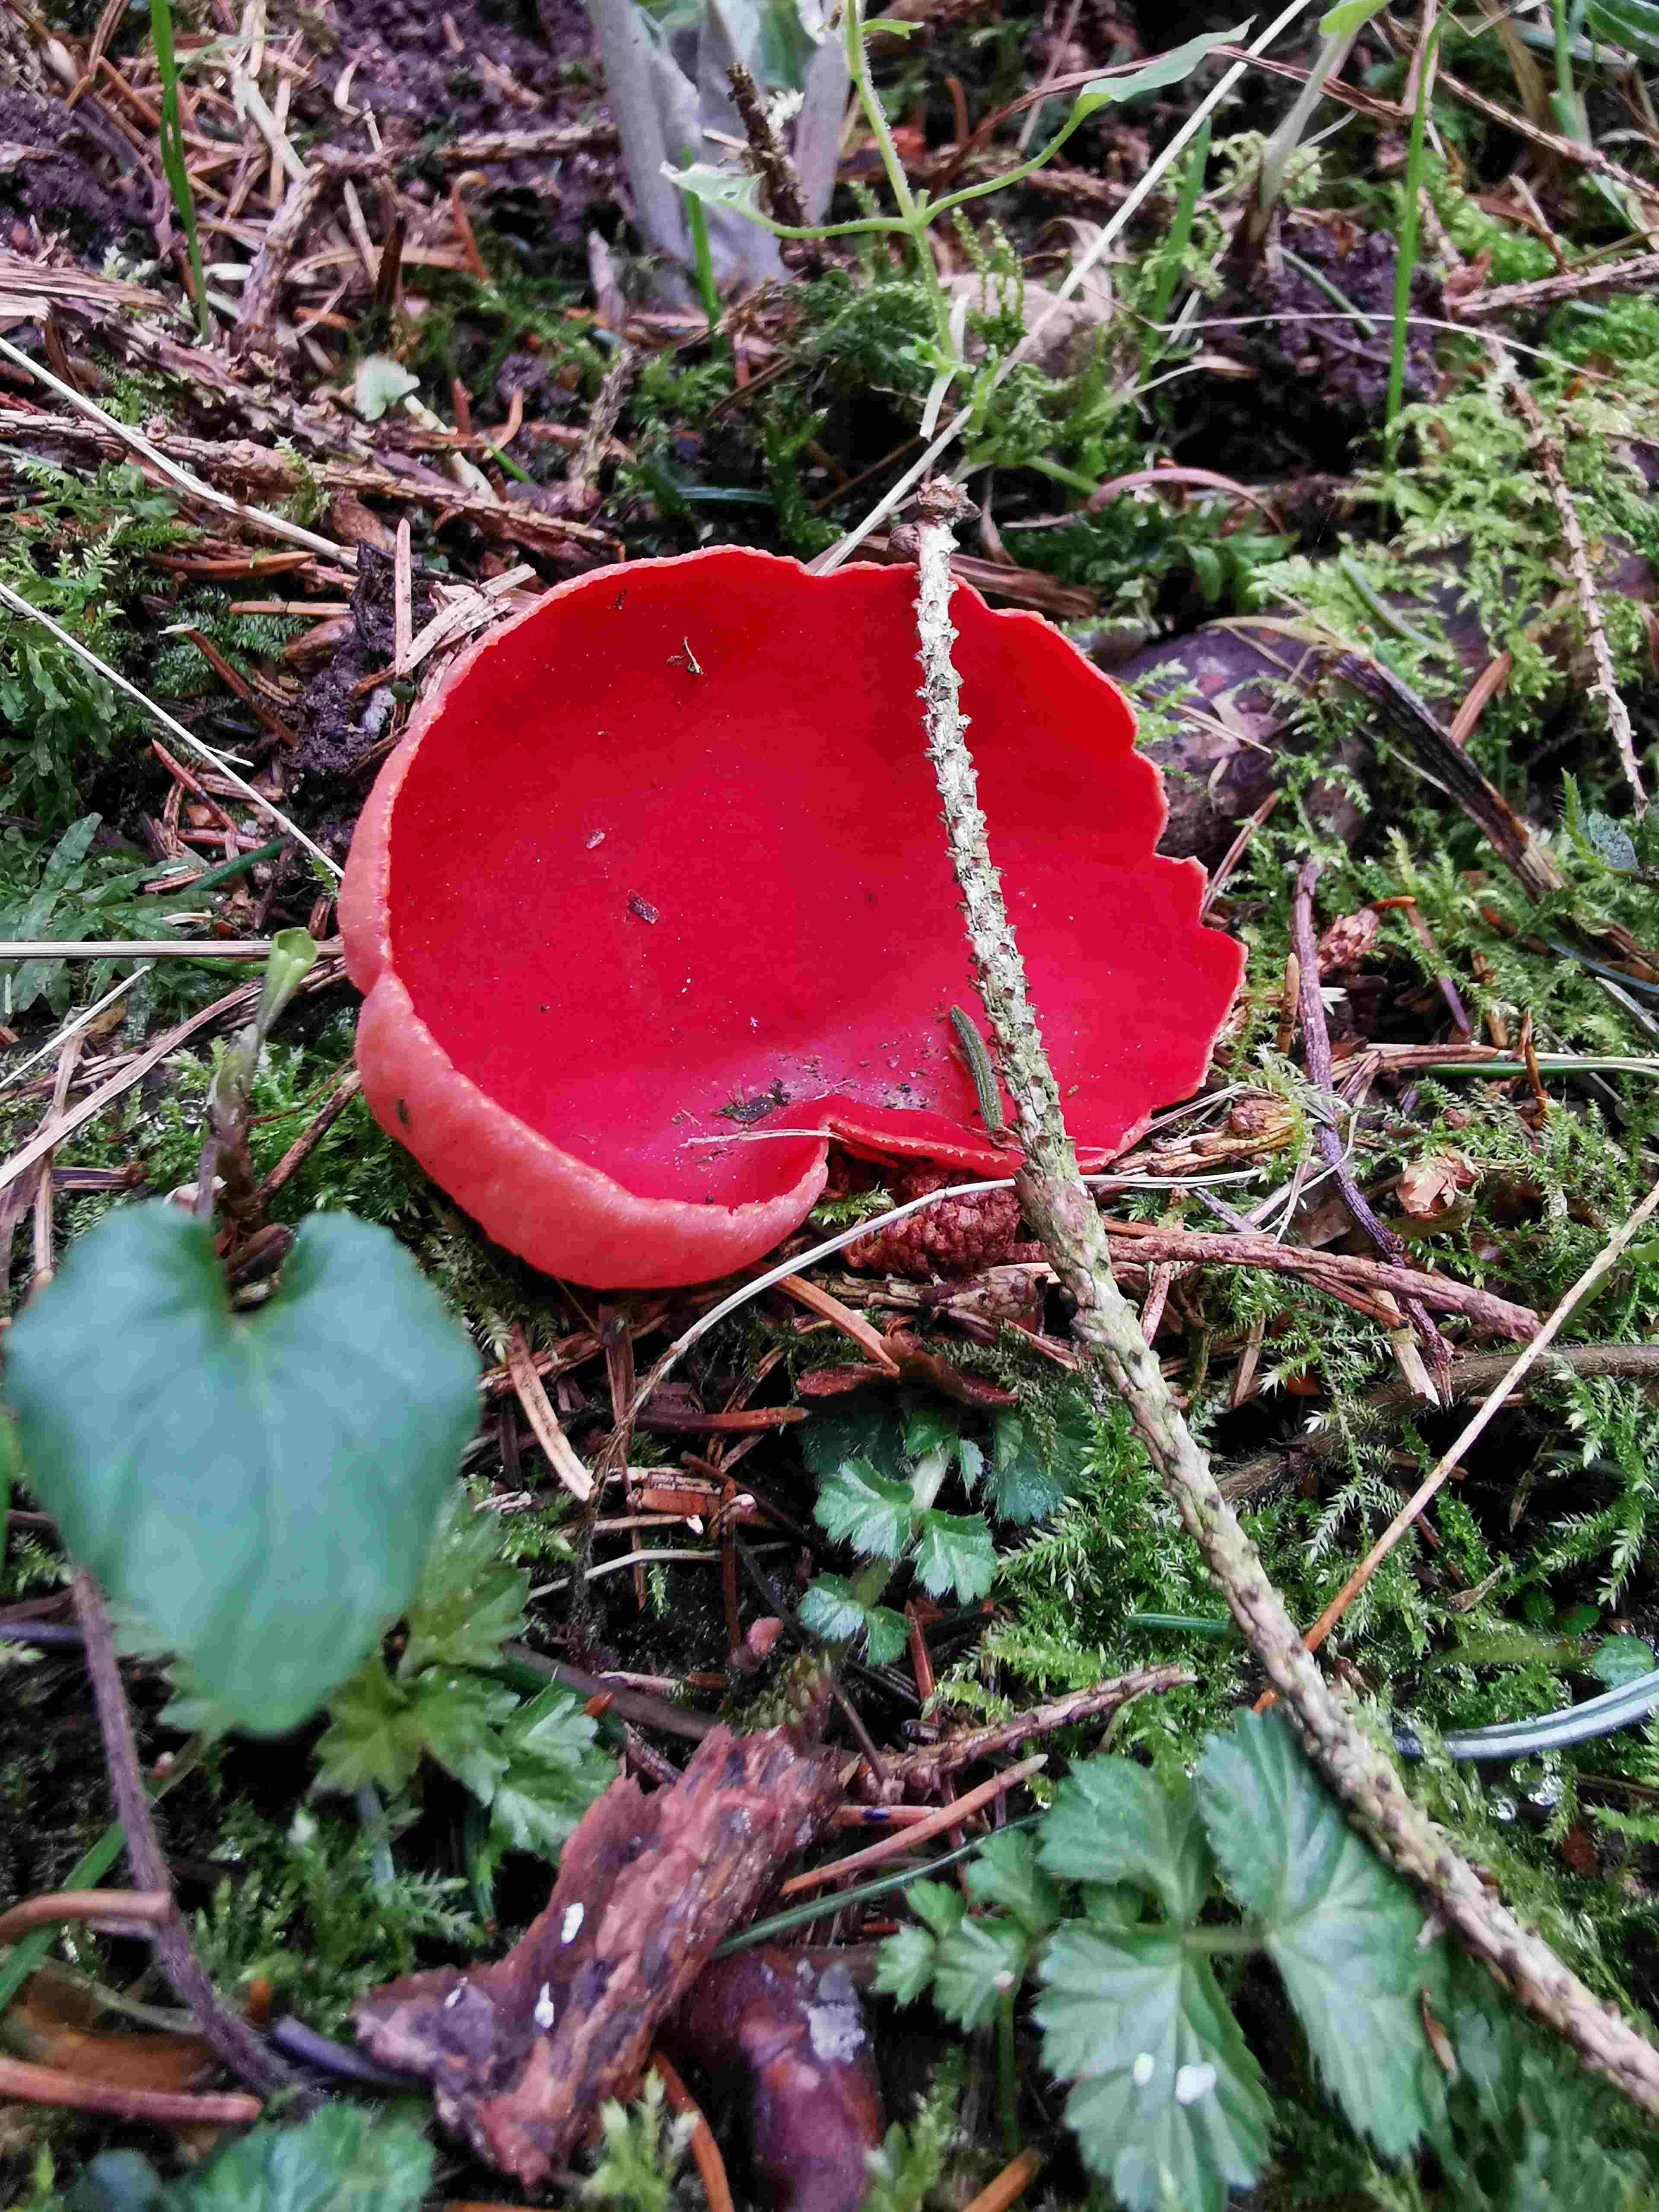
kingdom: Fungi
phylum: Ascomycota
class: Pezizomycetes
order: Pezizales
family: Sarcoscyphaceae
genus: Sarcoscypha
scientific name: Sarcoscypha austriaca
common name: krølhåret pragtbæger
